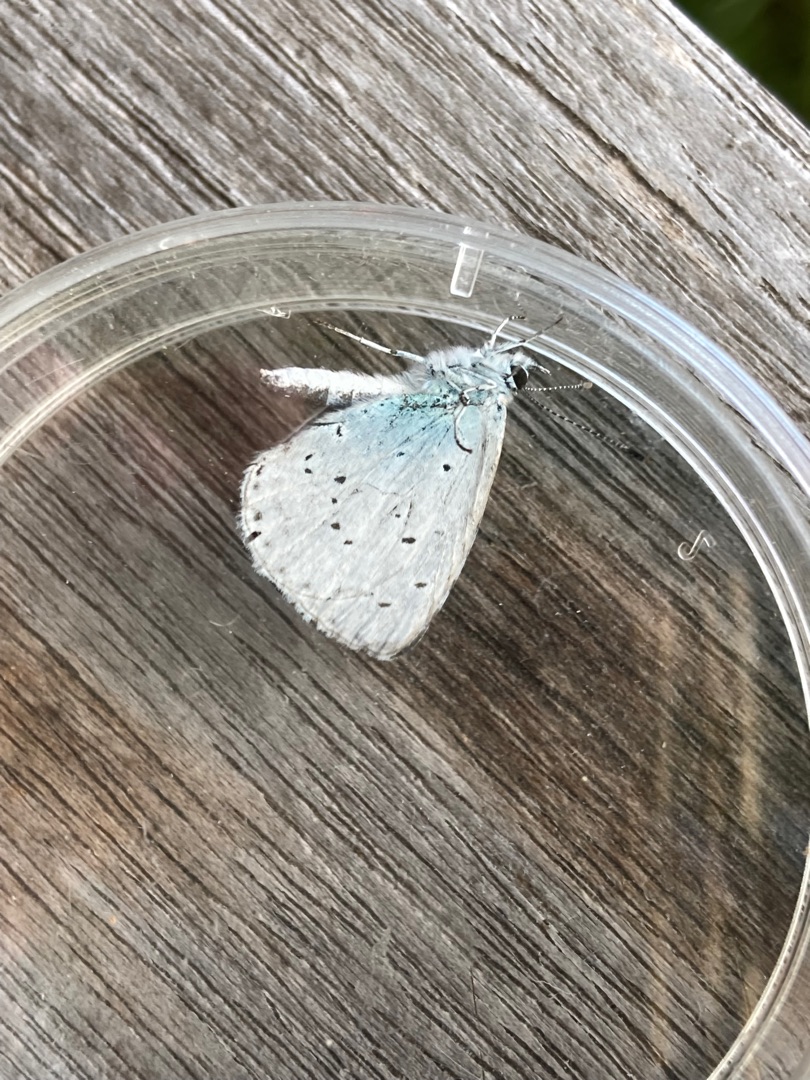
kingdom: Animalia
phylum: Arthropoda
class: Insecta
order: Lepidoptera
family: Lycaenidae
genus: Celastrina
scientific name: Celastrina argiolus
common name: Skovblåfugl
